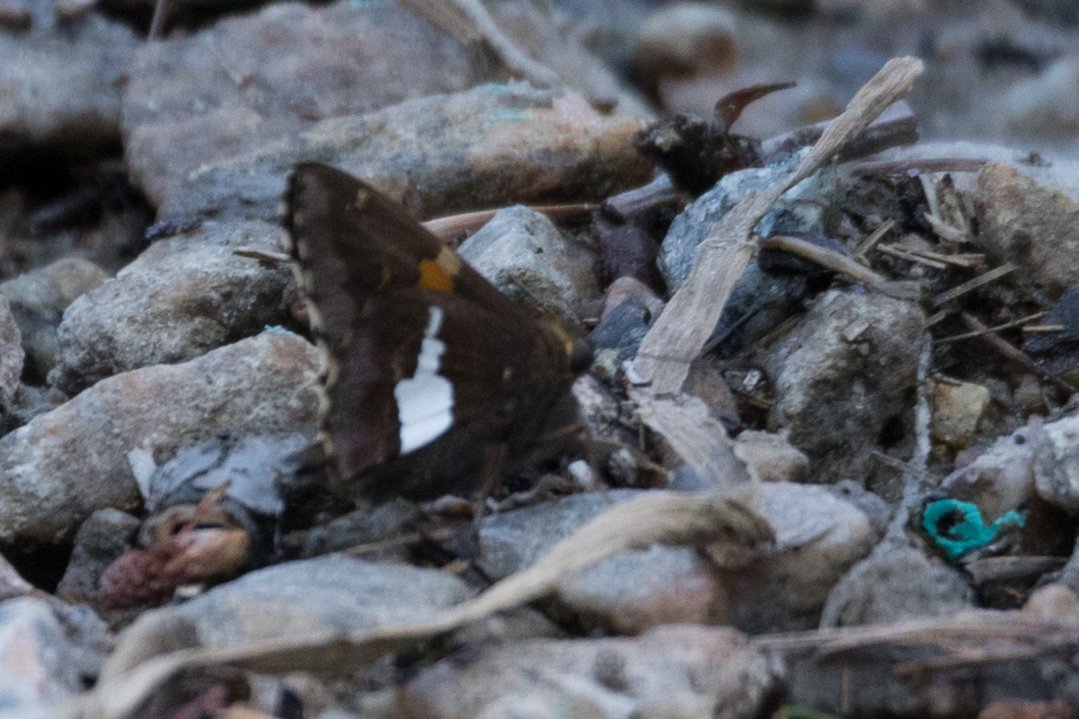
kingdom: Animalia
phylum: Arthropoda
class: Insecta
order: Lepidoptera
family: Hesperiidae
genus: Epargyreus
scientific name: Epargyreus clarus
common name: Silver-spotted Skipper
